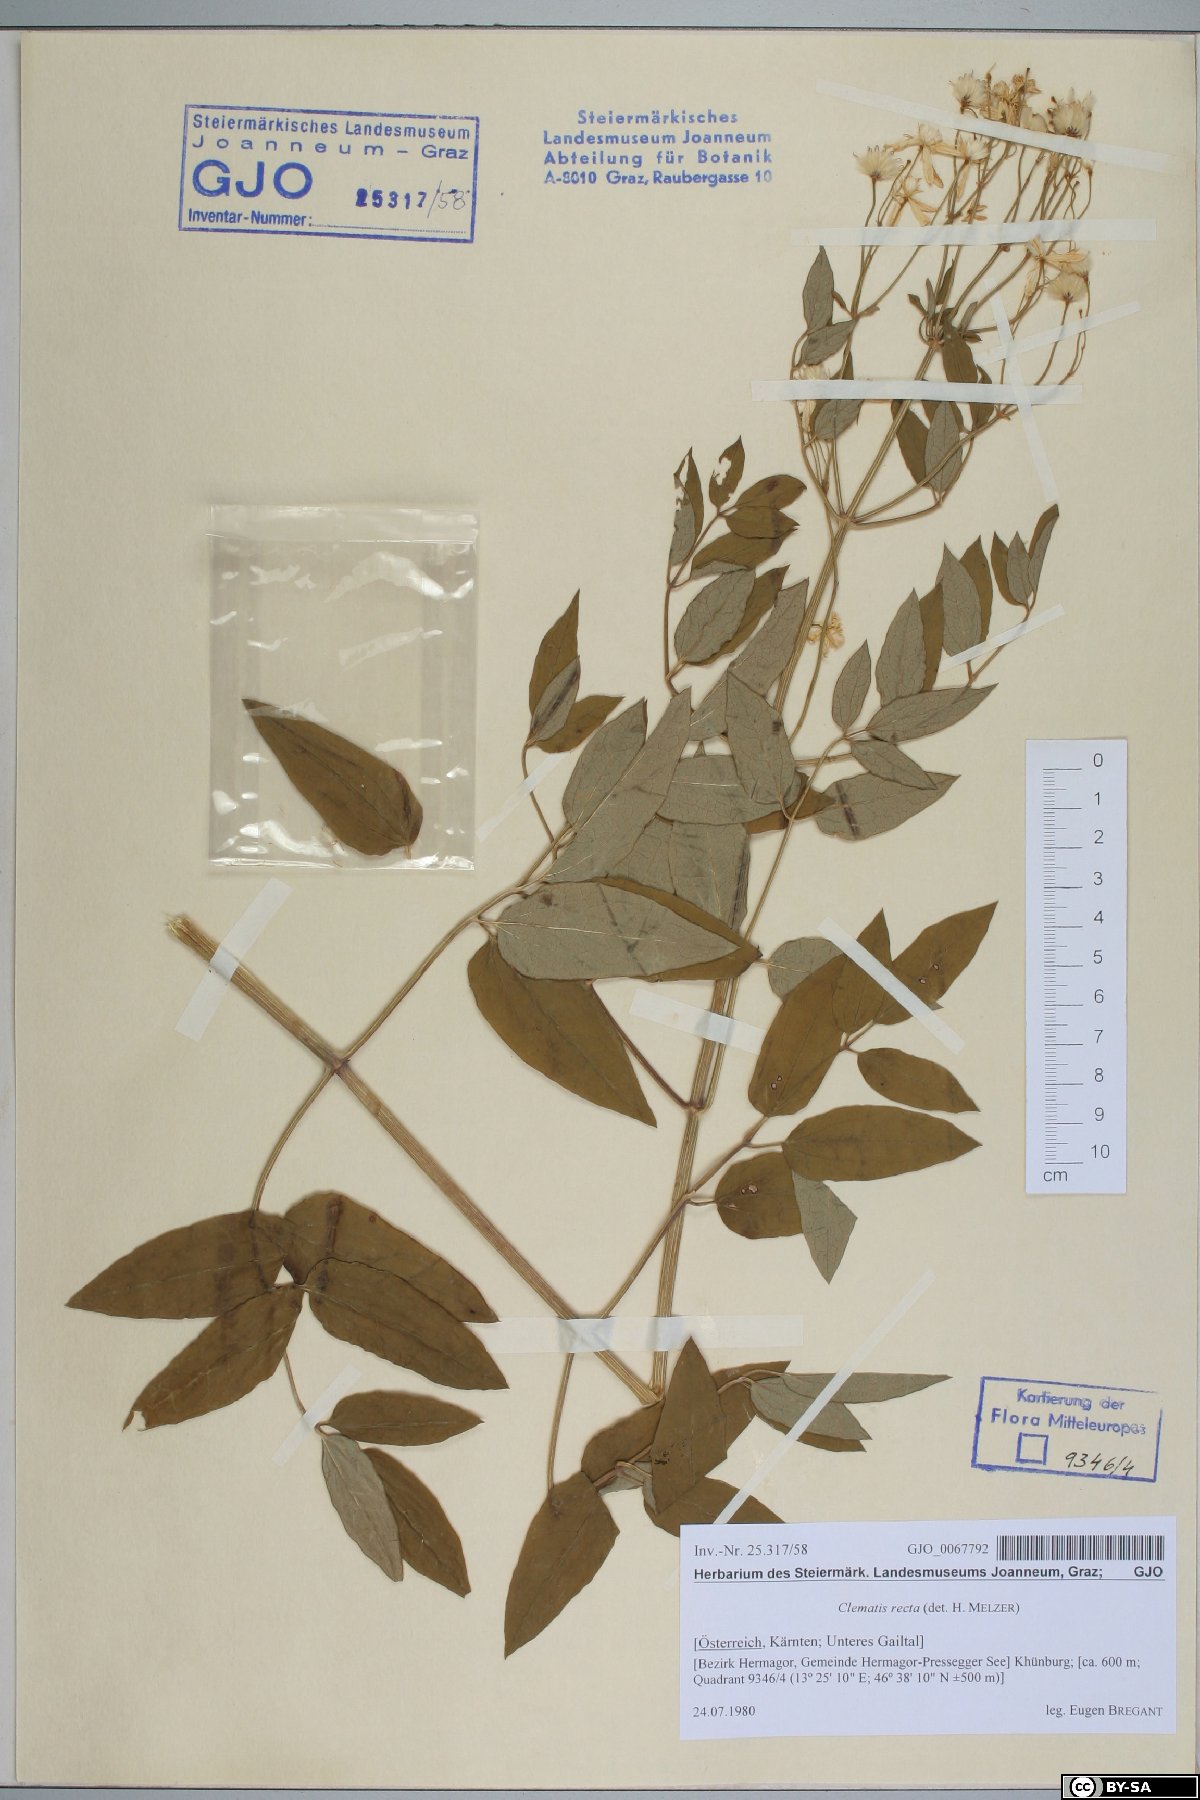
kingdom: Plantae
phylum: Tracheophyta
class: Magnoliopsida
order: Ranunculales
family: Ranunculaceae
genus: Clematis
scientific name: Clematis recta
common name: Ground clematis
